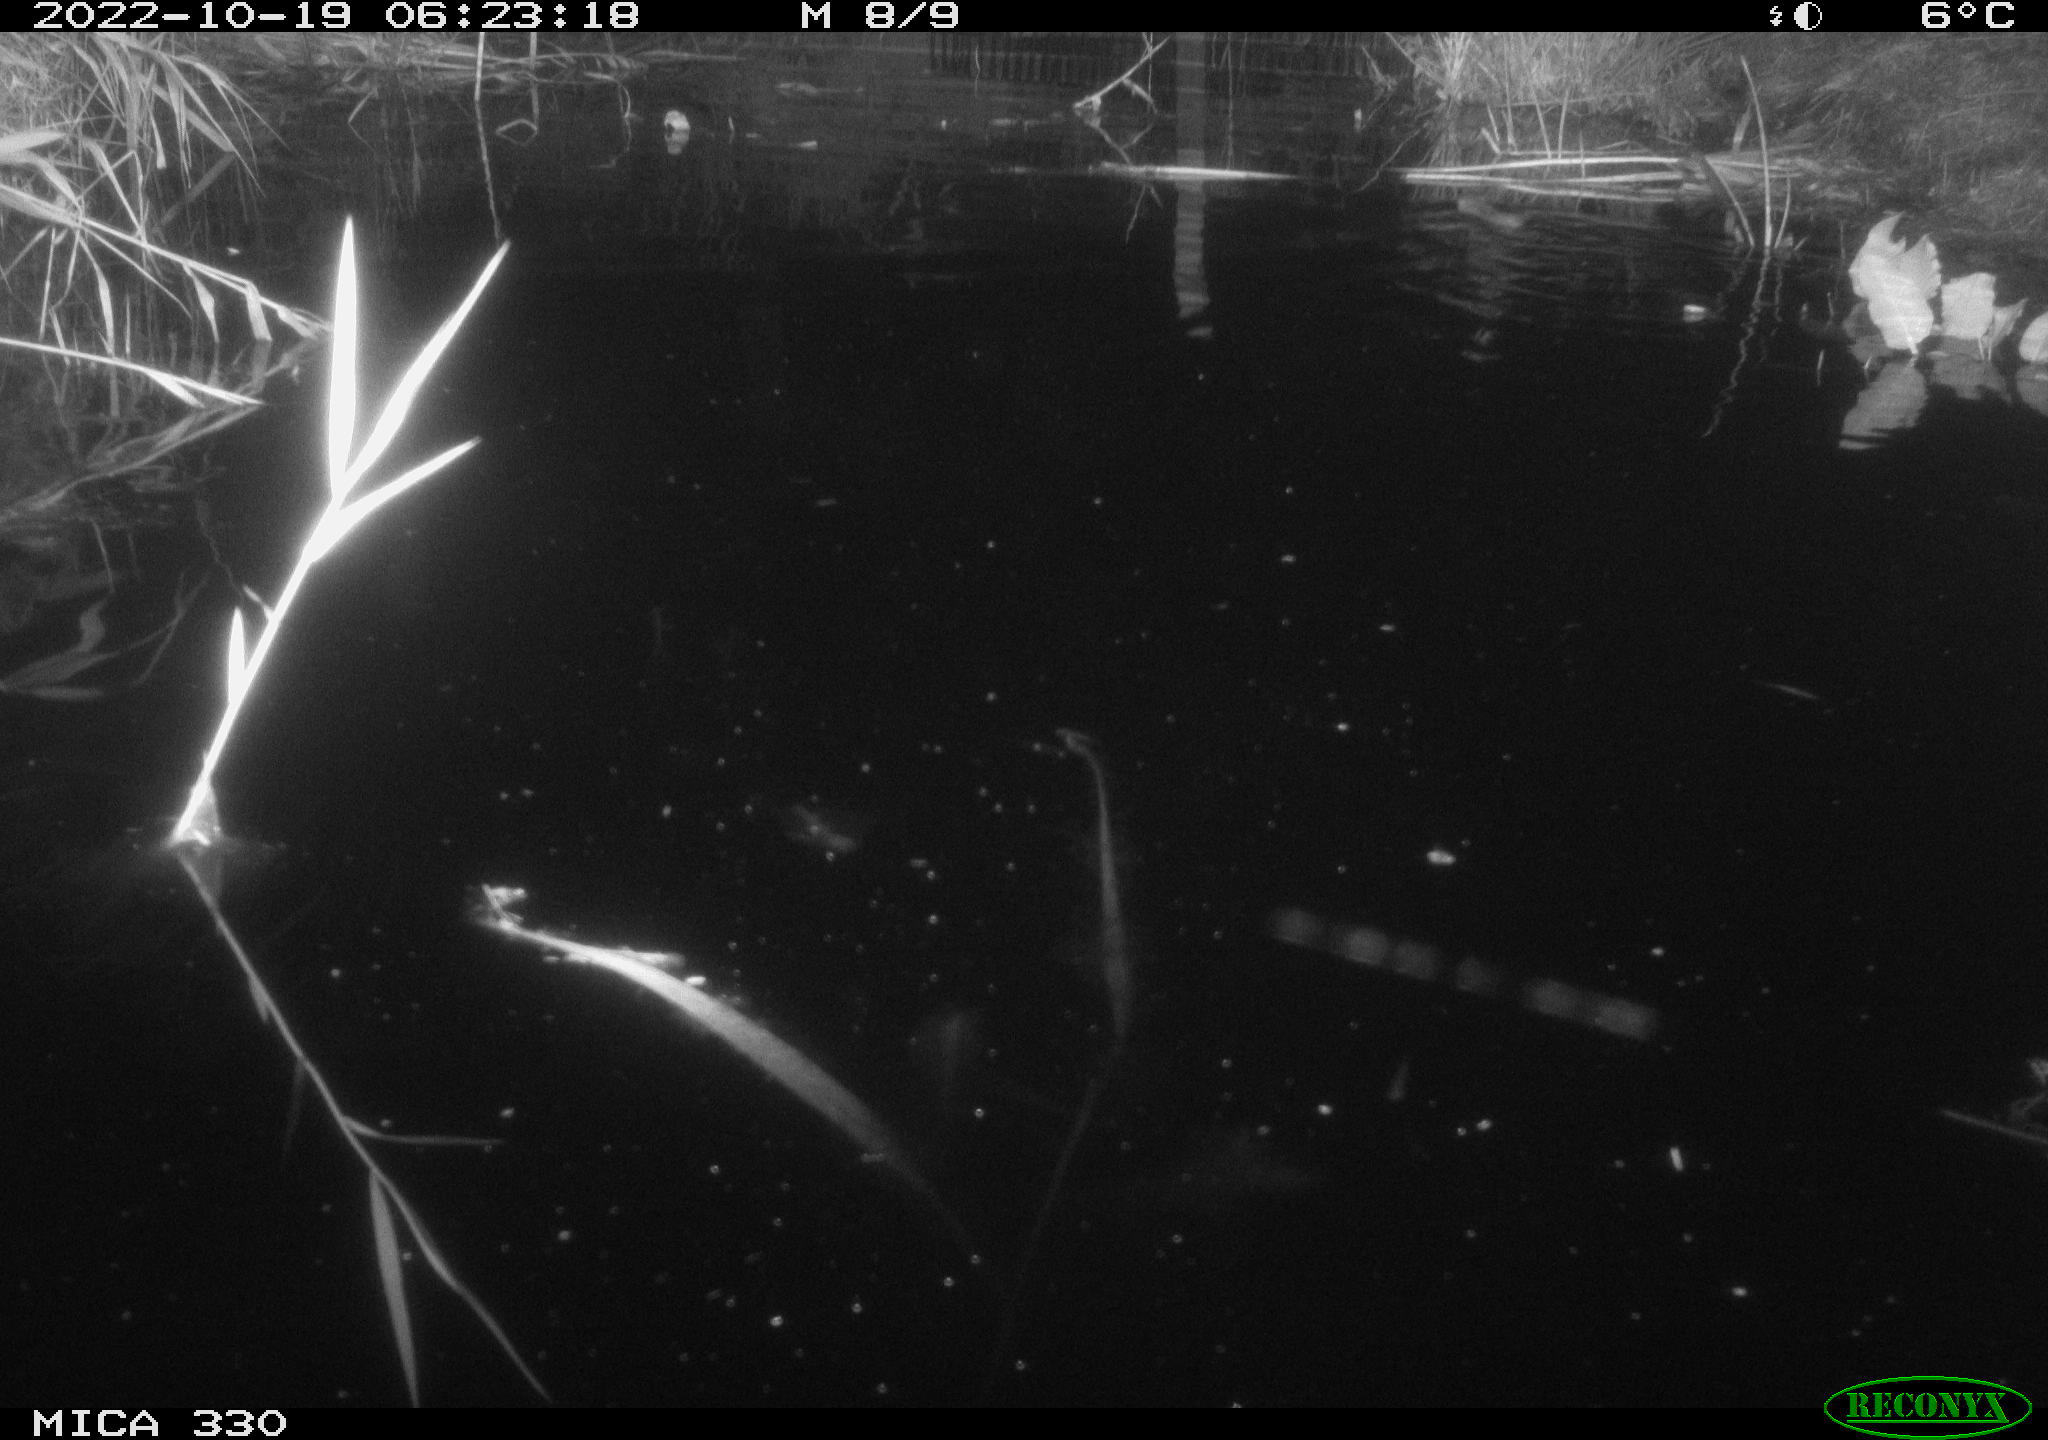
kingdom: Animalia
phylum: Chordata
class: Mammalia
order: Rodentia
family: Muridae
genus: Rattus
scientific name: Rattus norvegicus
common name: Brown rat
